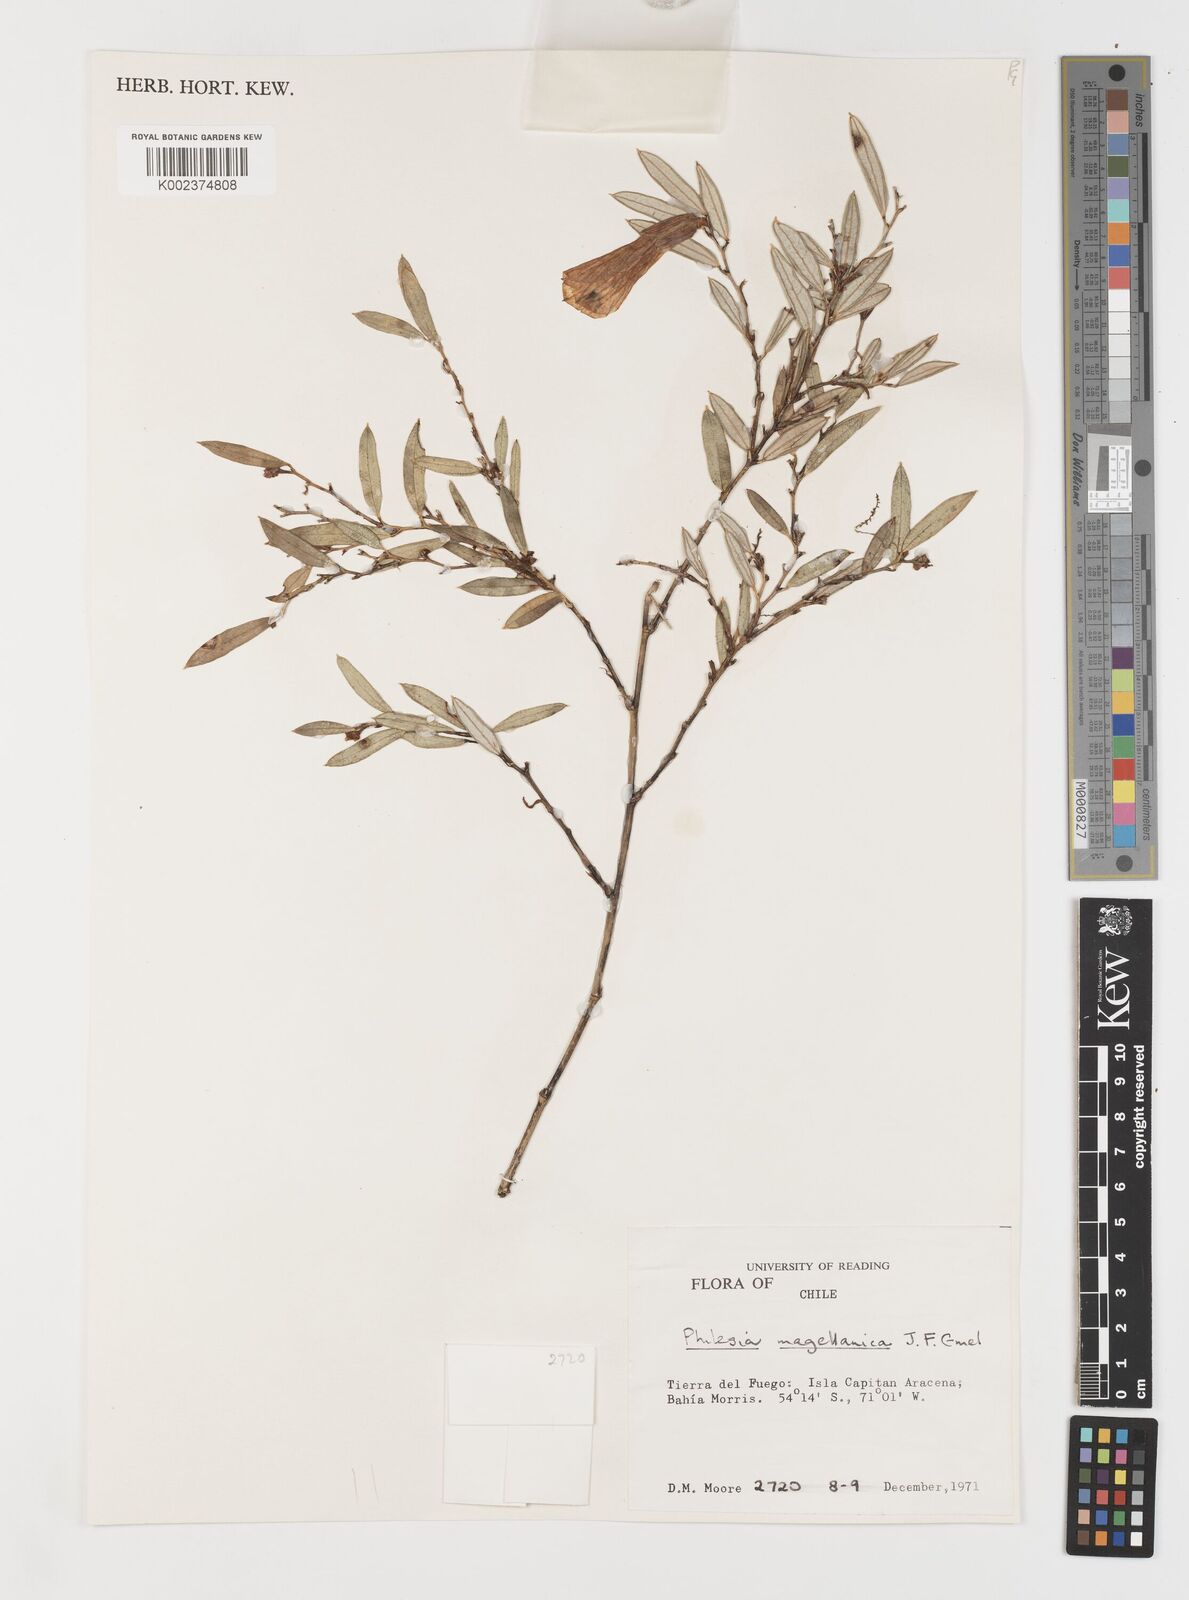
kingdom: Plantae
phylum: Tracheophyta
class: Liliopsida
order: Liliales
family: Philesiaceae
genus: Philesia
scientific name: Philesia magellanica
